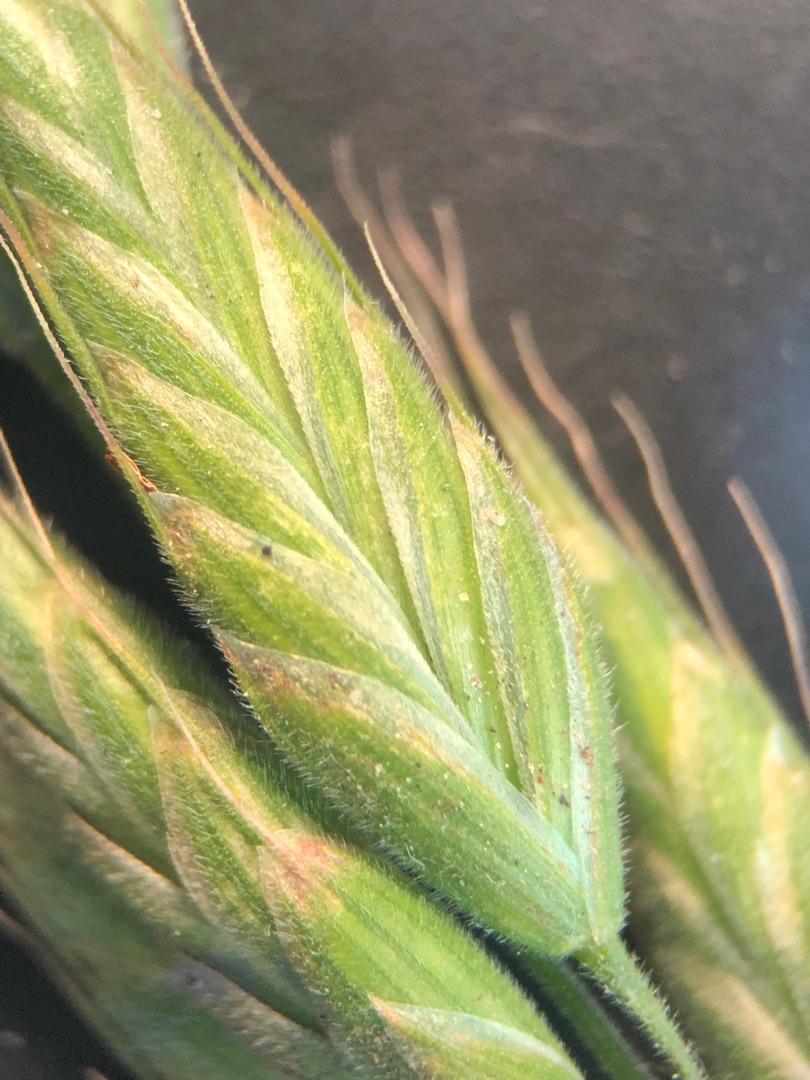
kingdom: Plantae
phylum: Tracheophyta
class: Liliopsida
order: Poales
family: Poaceae
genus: Bromus
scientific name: Bromus hordeaceus
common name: Blød hejre
